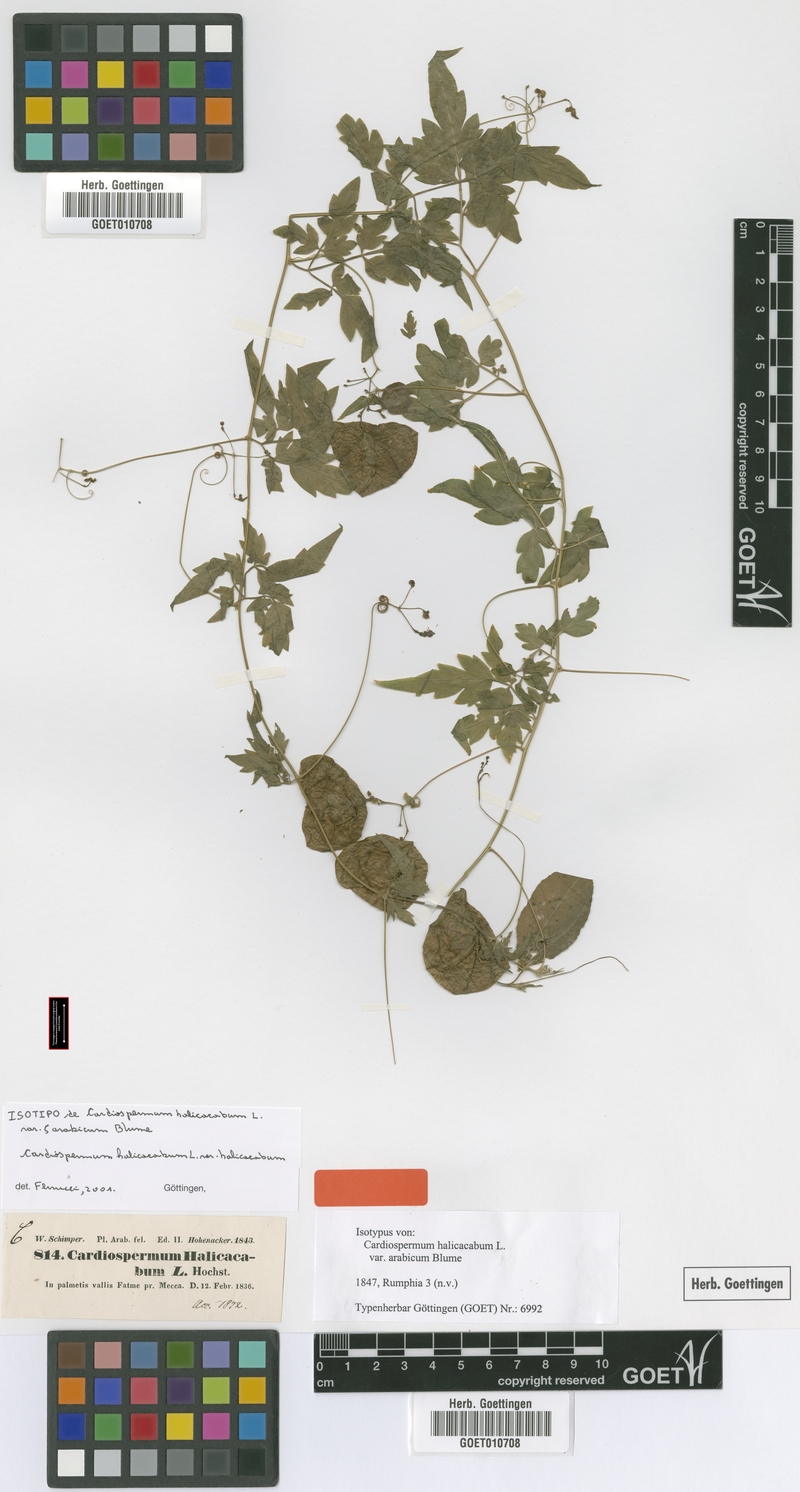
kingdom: Plantae
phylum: Tracheophyta
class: Magnoliopsida
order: Sapindales
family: Sapindaceae
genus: Cardiospermum
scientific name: Cardiospermum halicacabum
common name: Balloon vine
